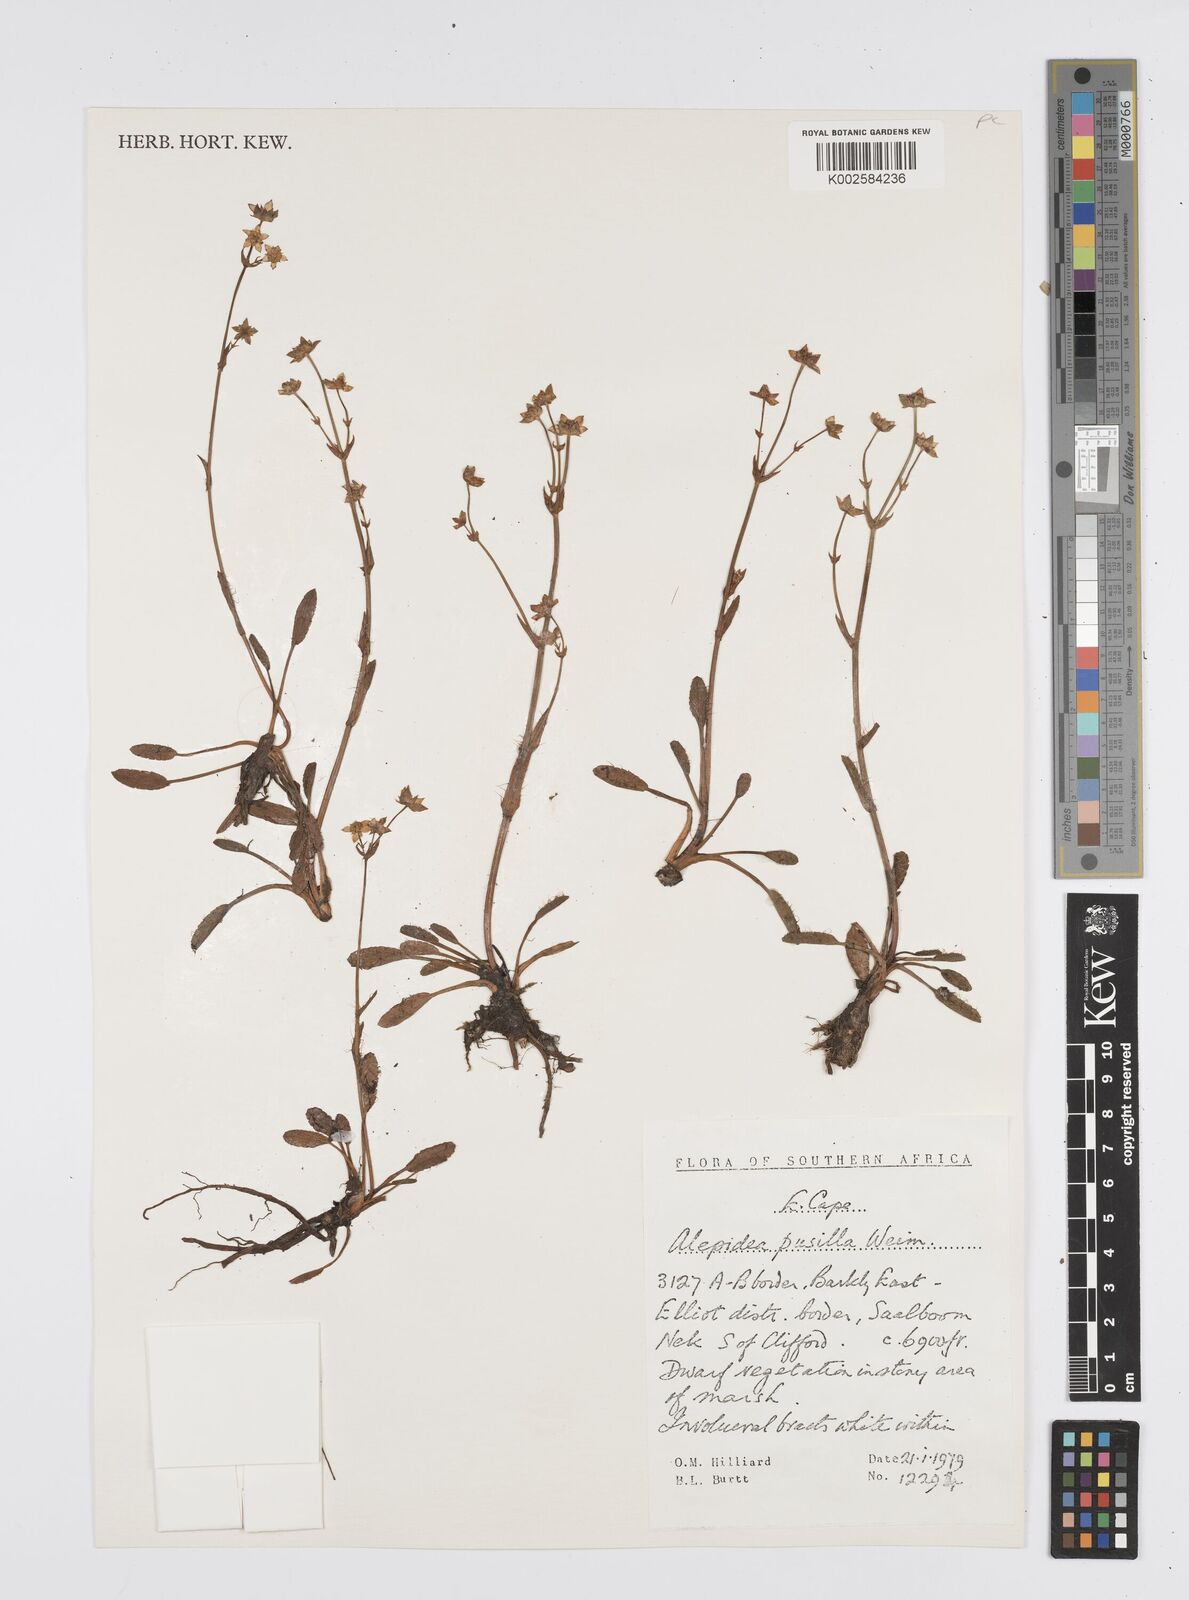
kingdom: Plantae
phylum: Tracheophyta
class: Magnoliopsida
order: Apiales
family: Apiaceae
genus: Alepidea
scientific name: Alepidea pusilla
